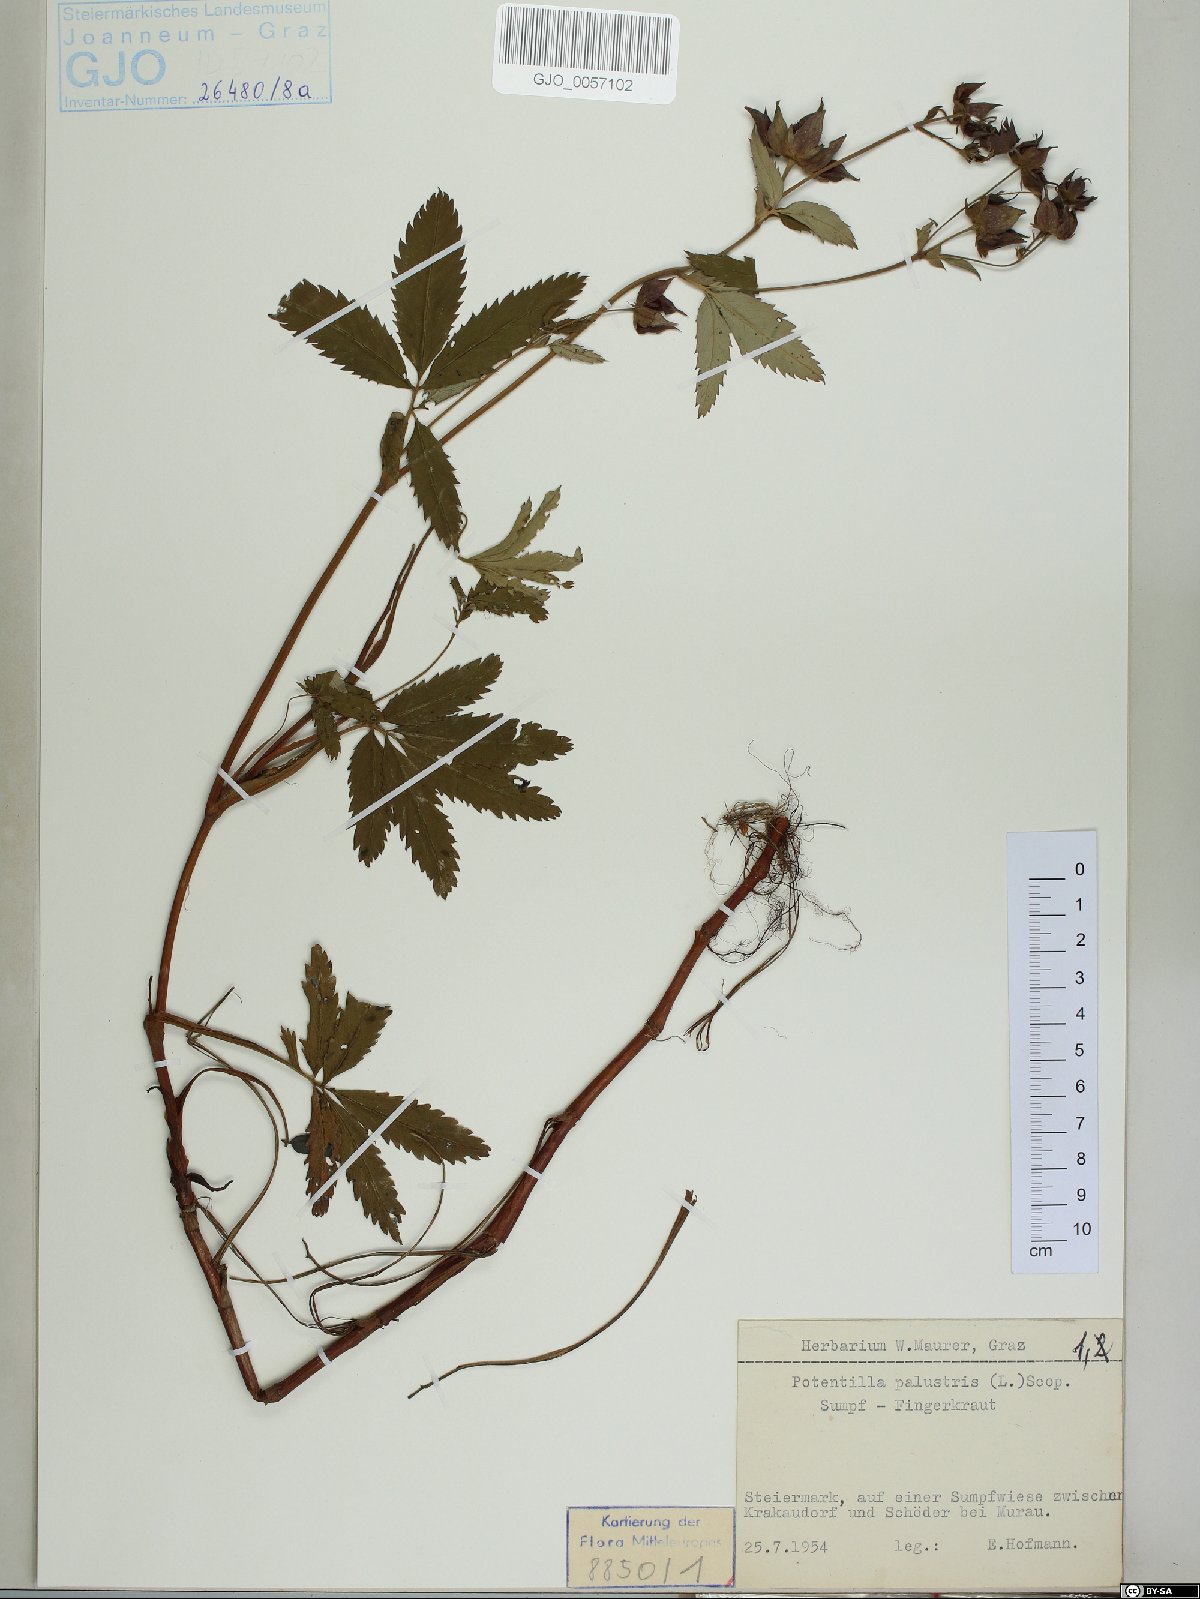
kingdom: Plantae
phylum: Tracheophyta
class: Magnoliopsida
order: Rosales
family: Rosaceae
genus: Comarum
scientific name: Comarum palustre
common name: Marsh cinquefoil
